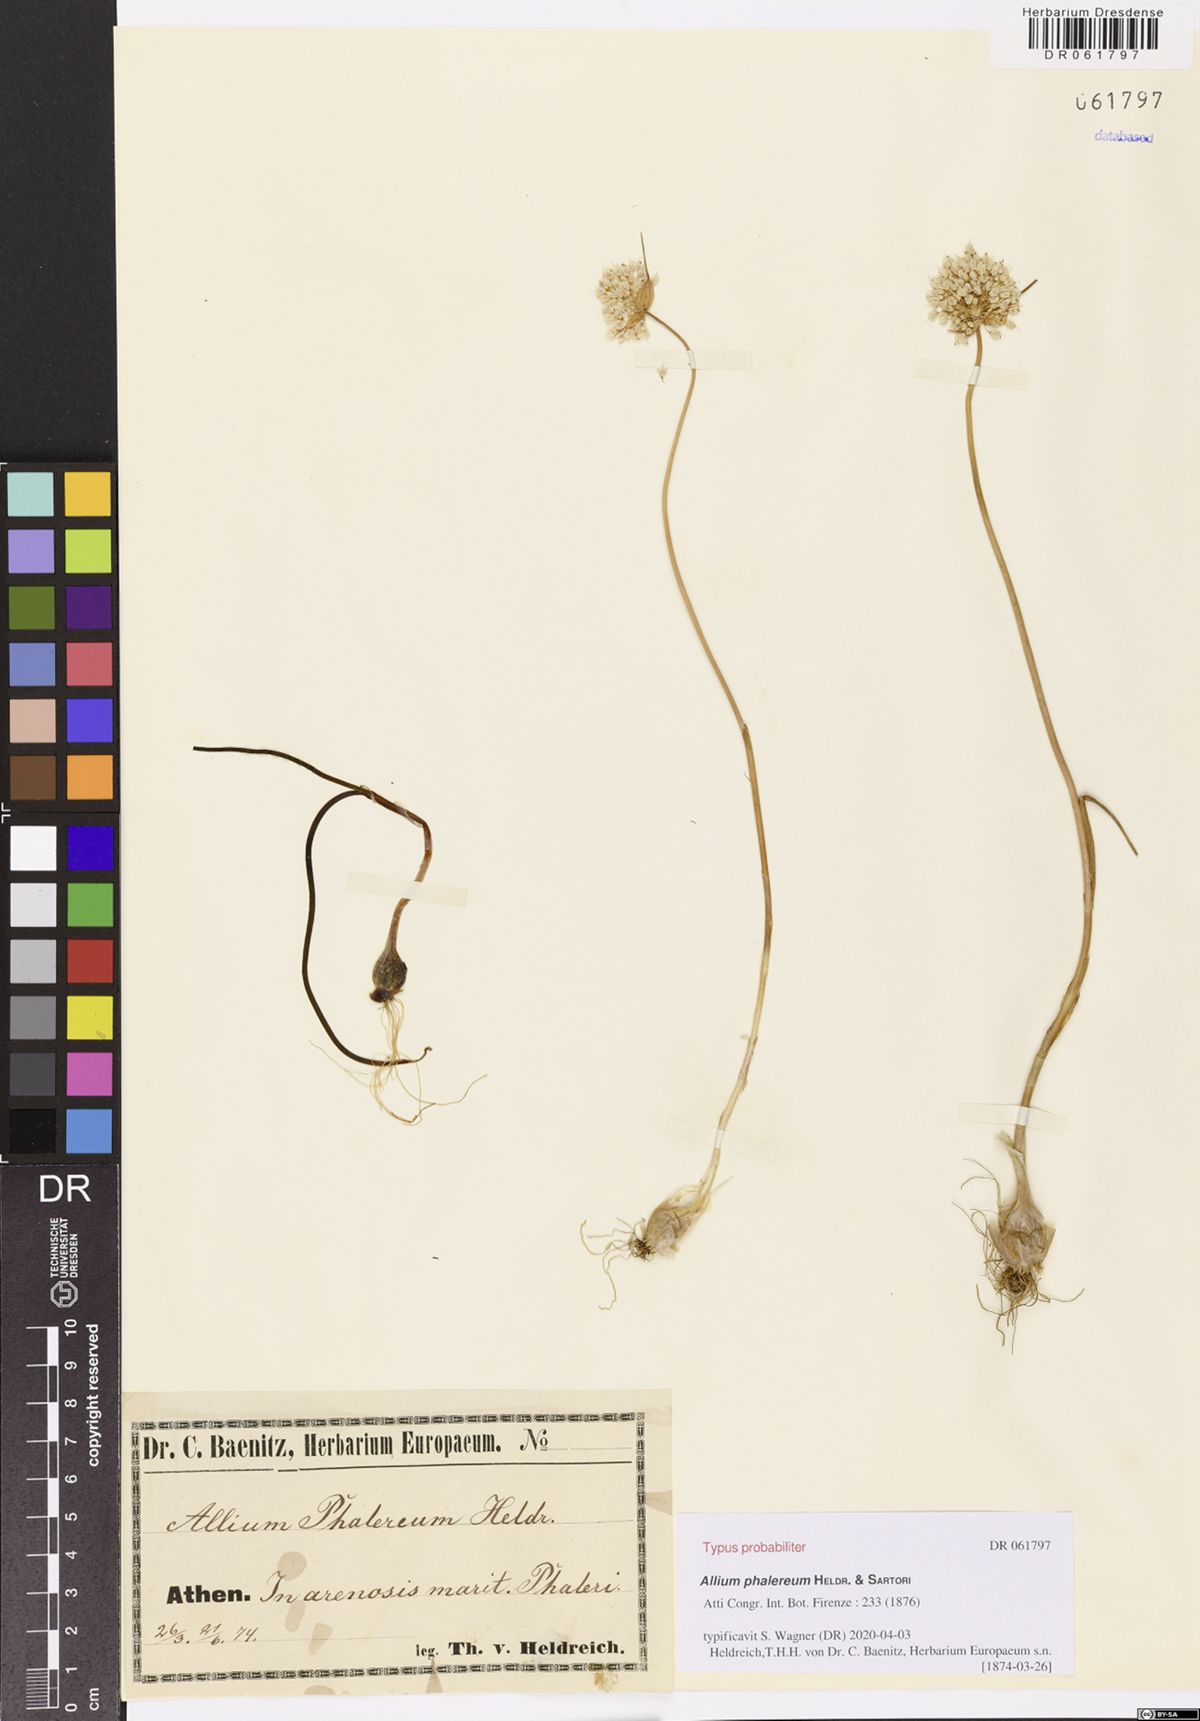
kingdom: Plantae
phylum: Tracheophyta
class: Liliopsida
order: Asparagales
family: Amaryllidaceae
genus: Allium
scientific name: Allium staticiforme
